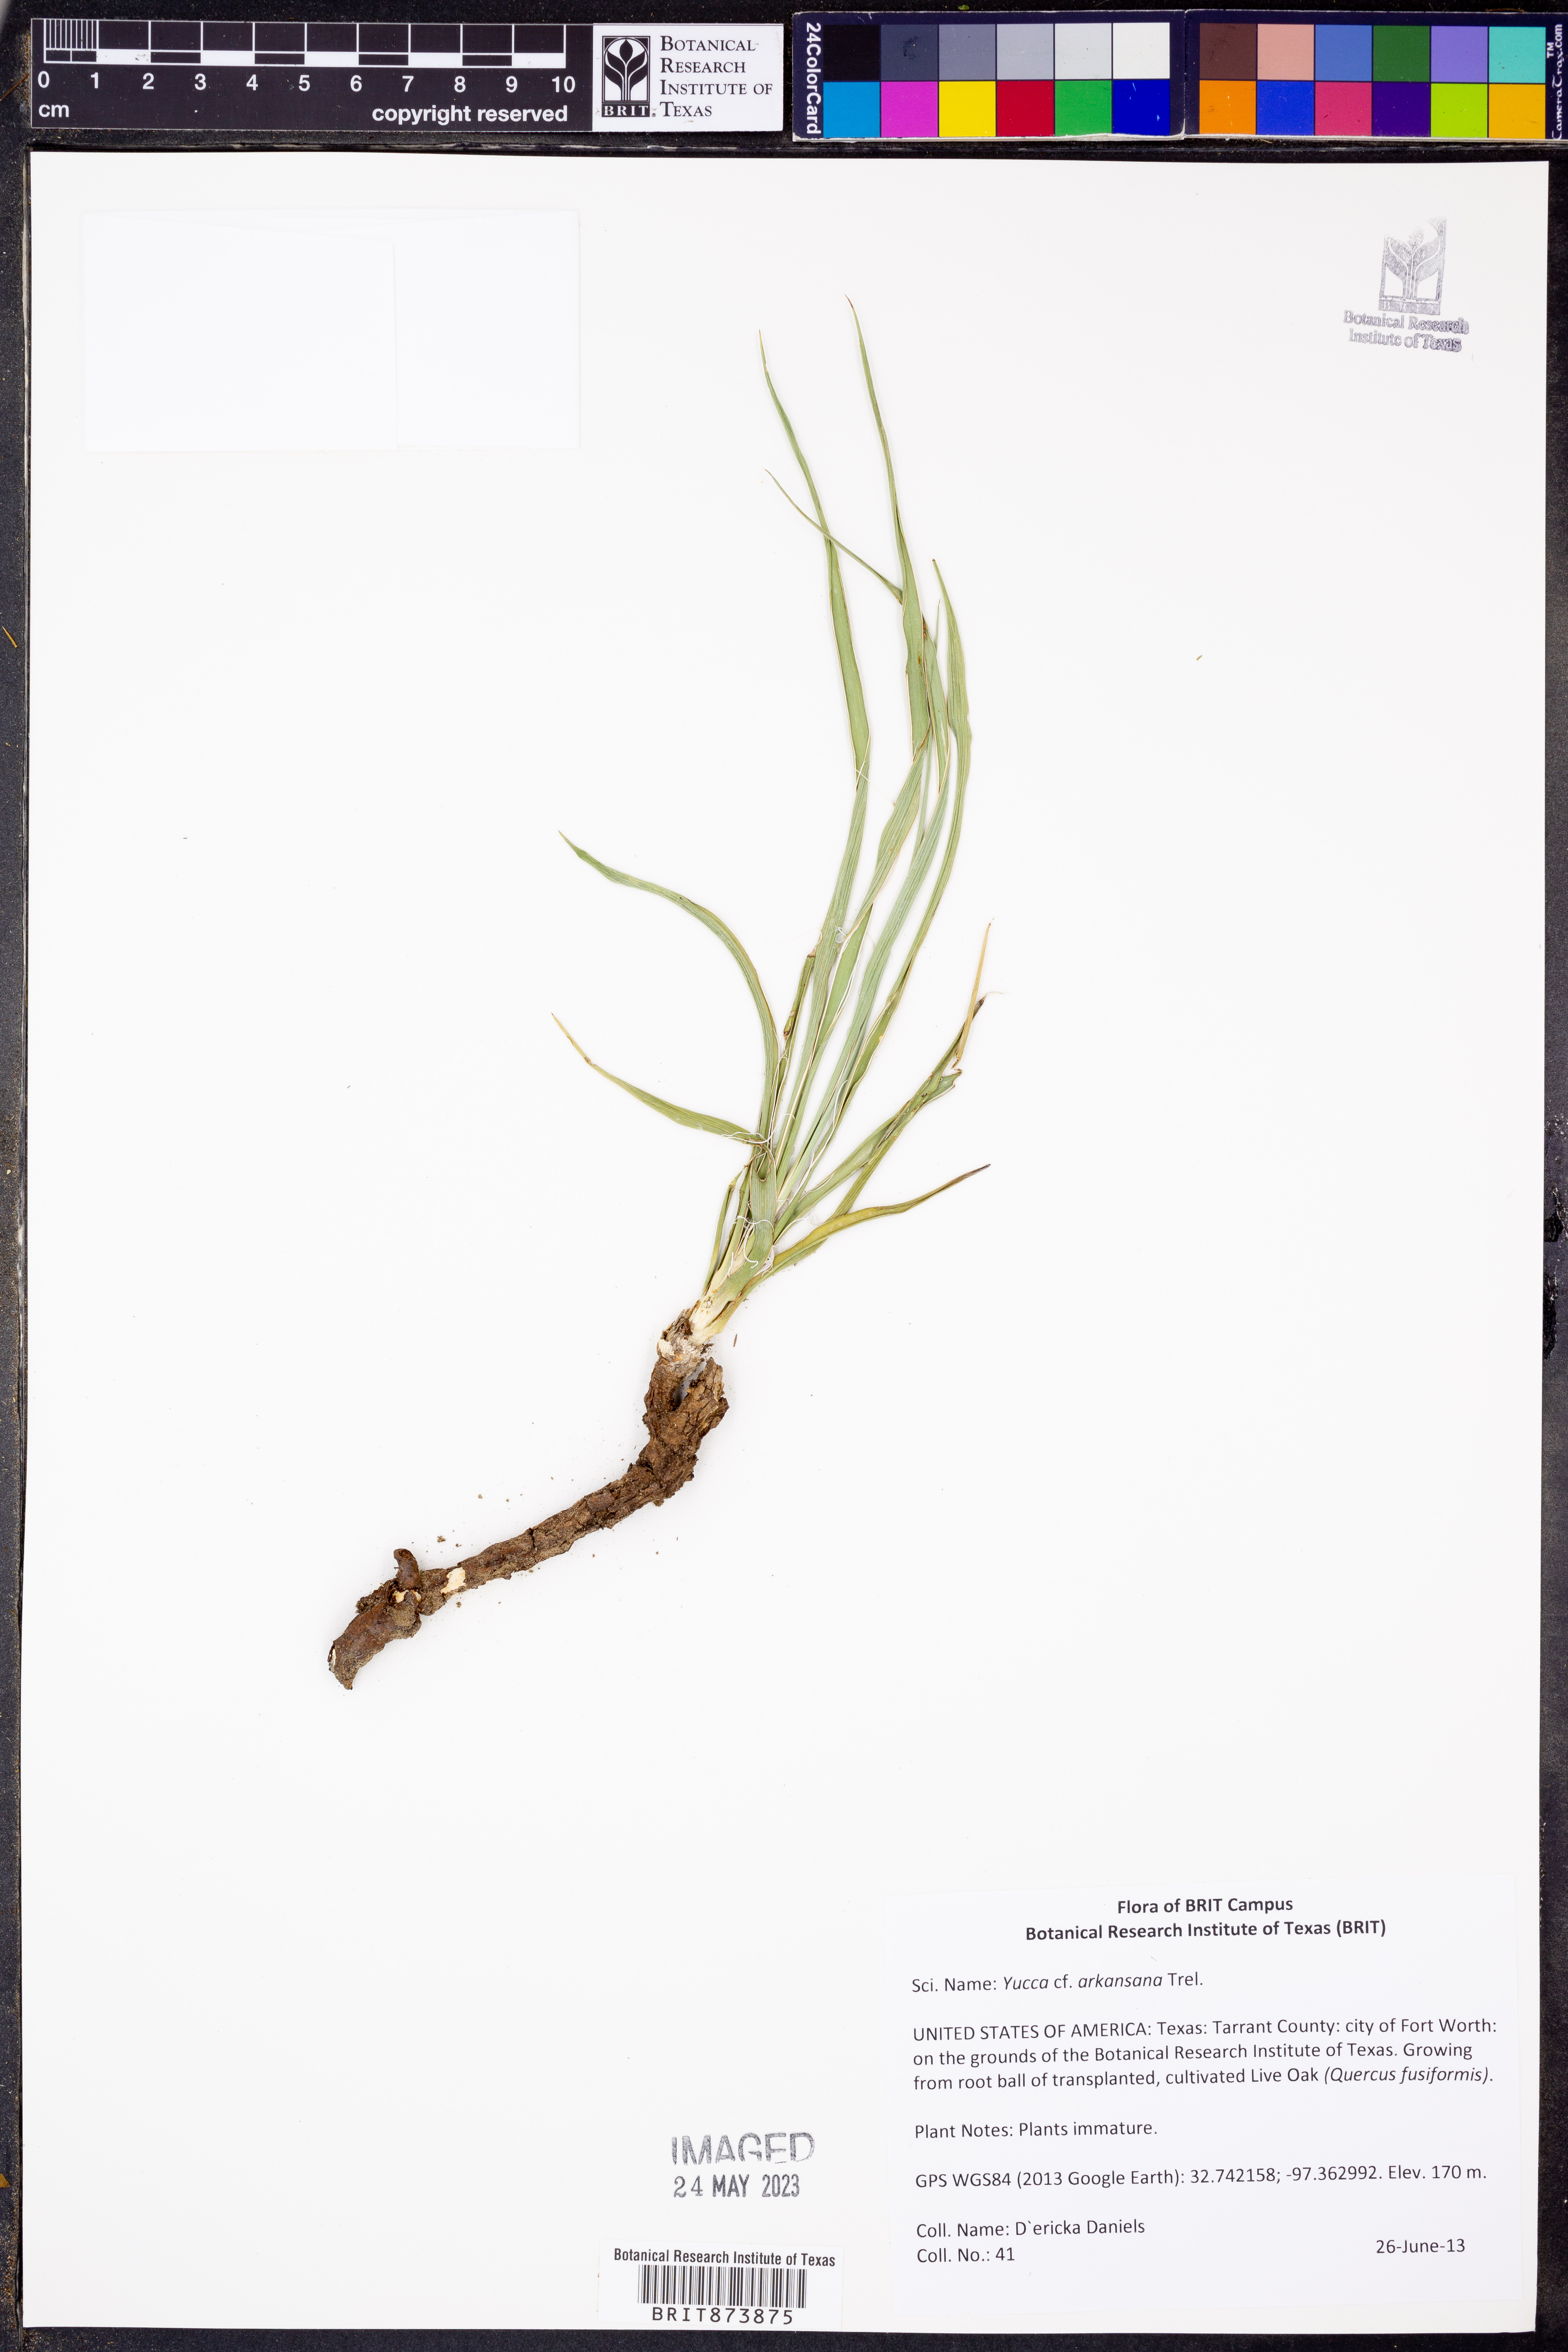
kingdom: Plantae
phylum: Tracheophyta
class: Liliopsida
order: Asparagales
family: Asparagaceae
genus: Yucca
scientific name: Yucca arkansana
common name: Arkansas yucca
